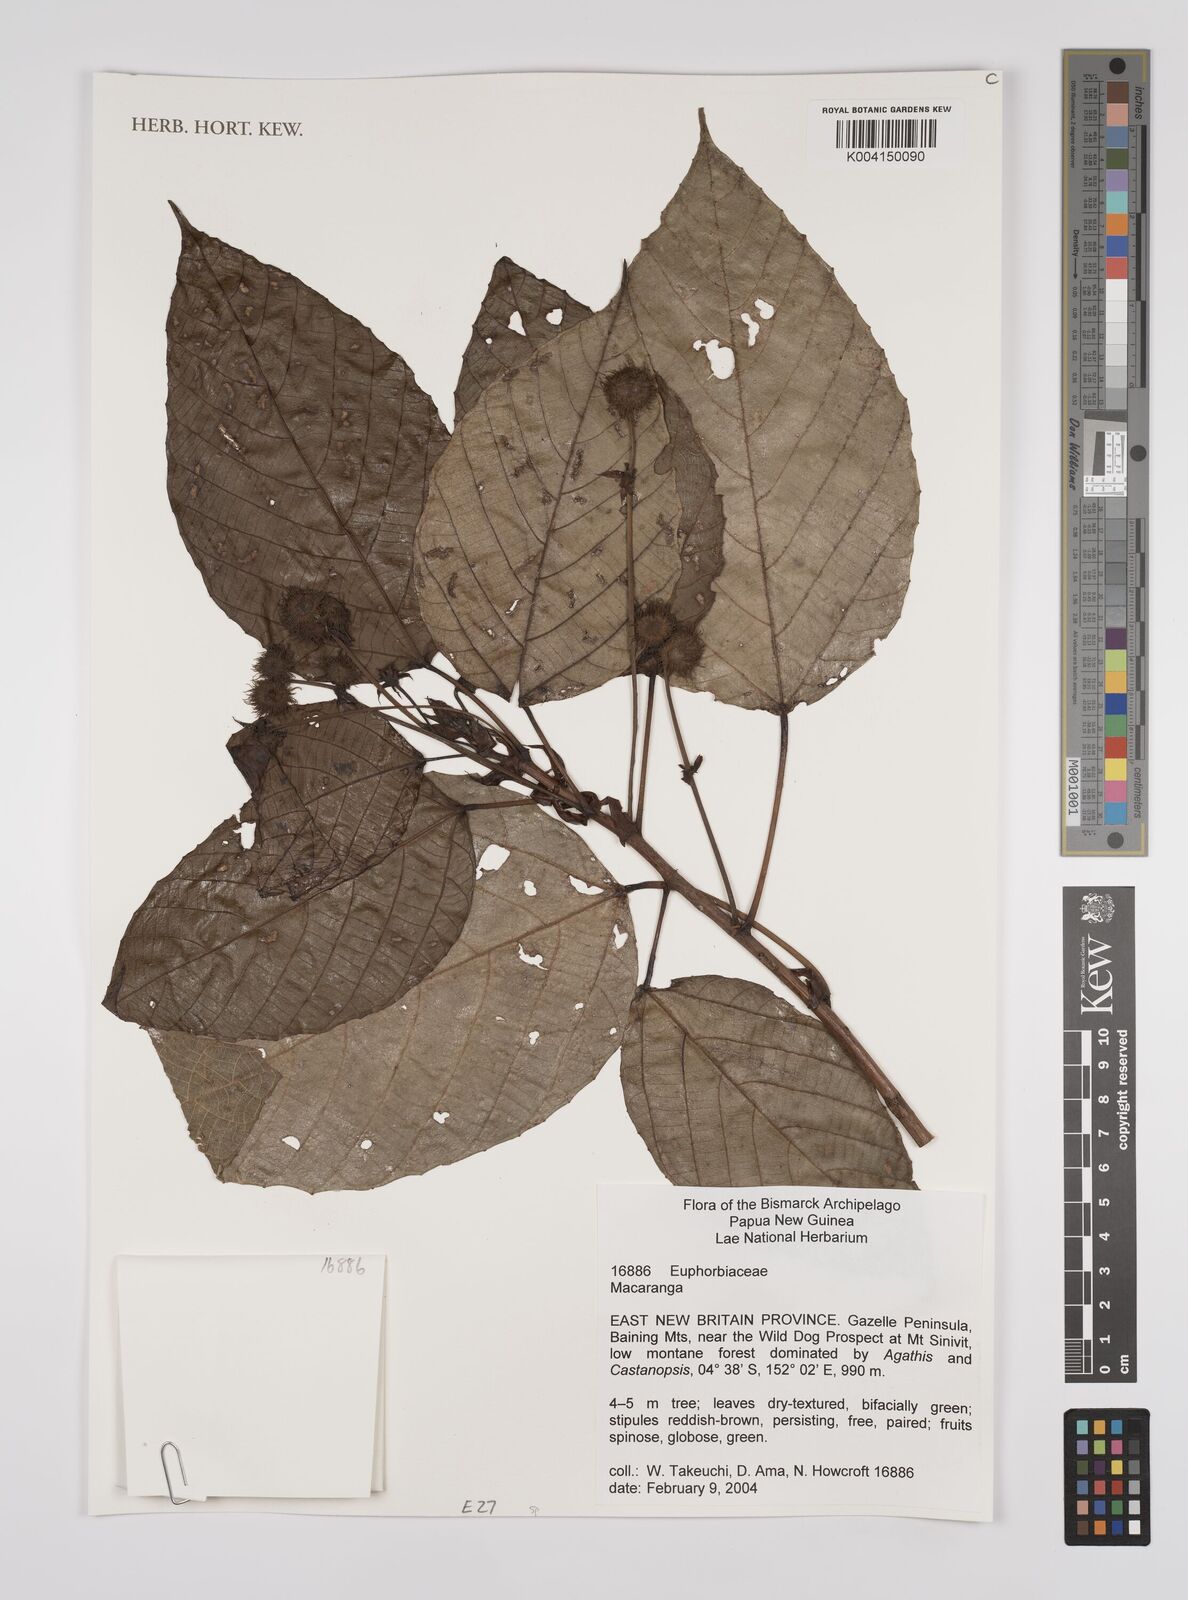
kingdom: Plantae
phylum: Tracheophyta
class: Magnoliopsida
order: Malpighiales
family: Euphorbiaceae
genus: Macaranga
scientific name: Macaranga
